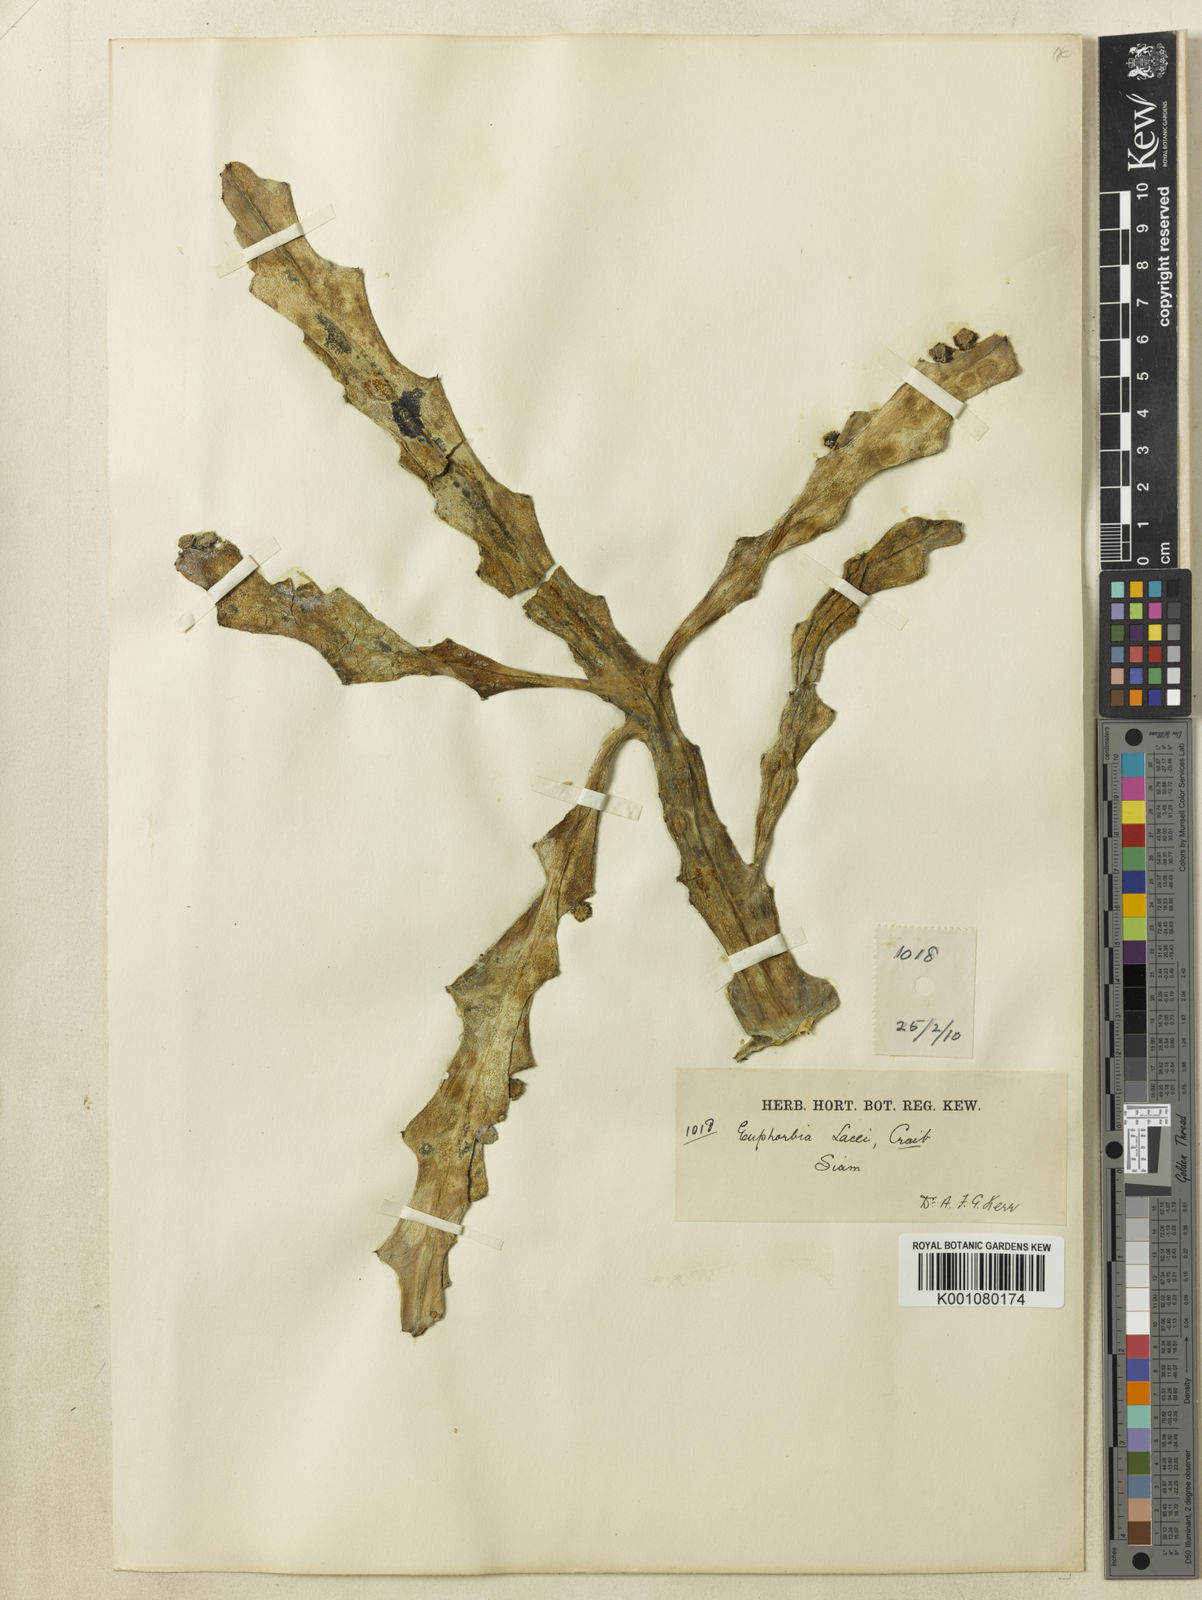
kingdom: Plantae
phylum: Tracheophyta
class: Magnoliopsida
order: Malpighiales
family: Euphorbiaceae
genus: Euphorbia
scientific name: Euphorbia lacei
